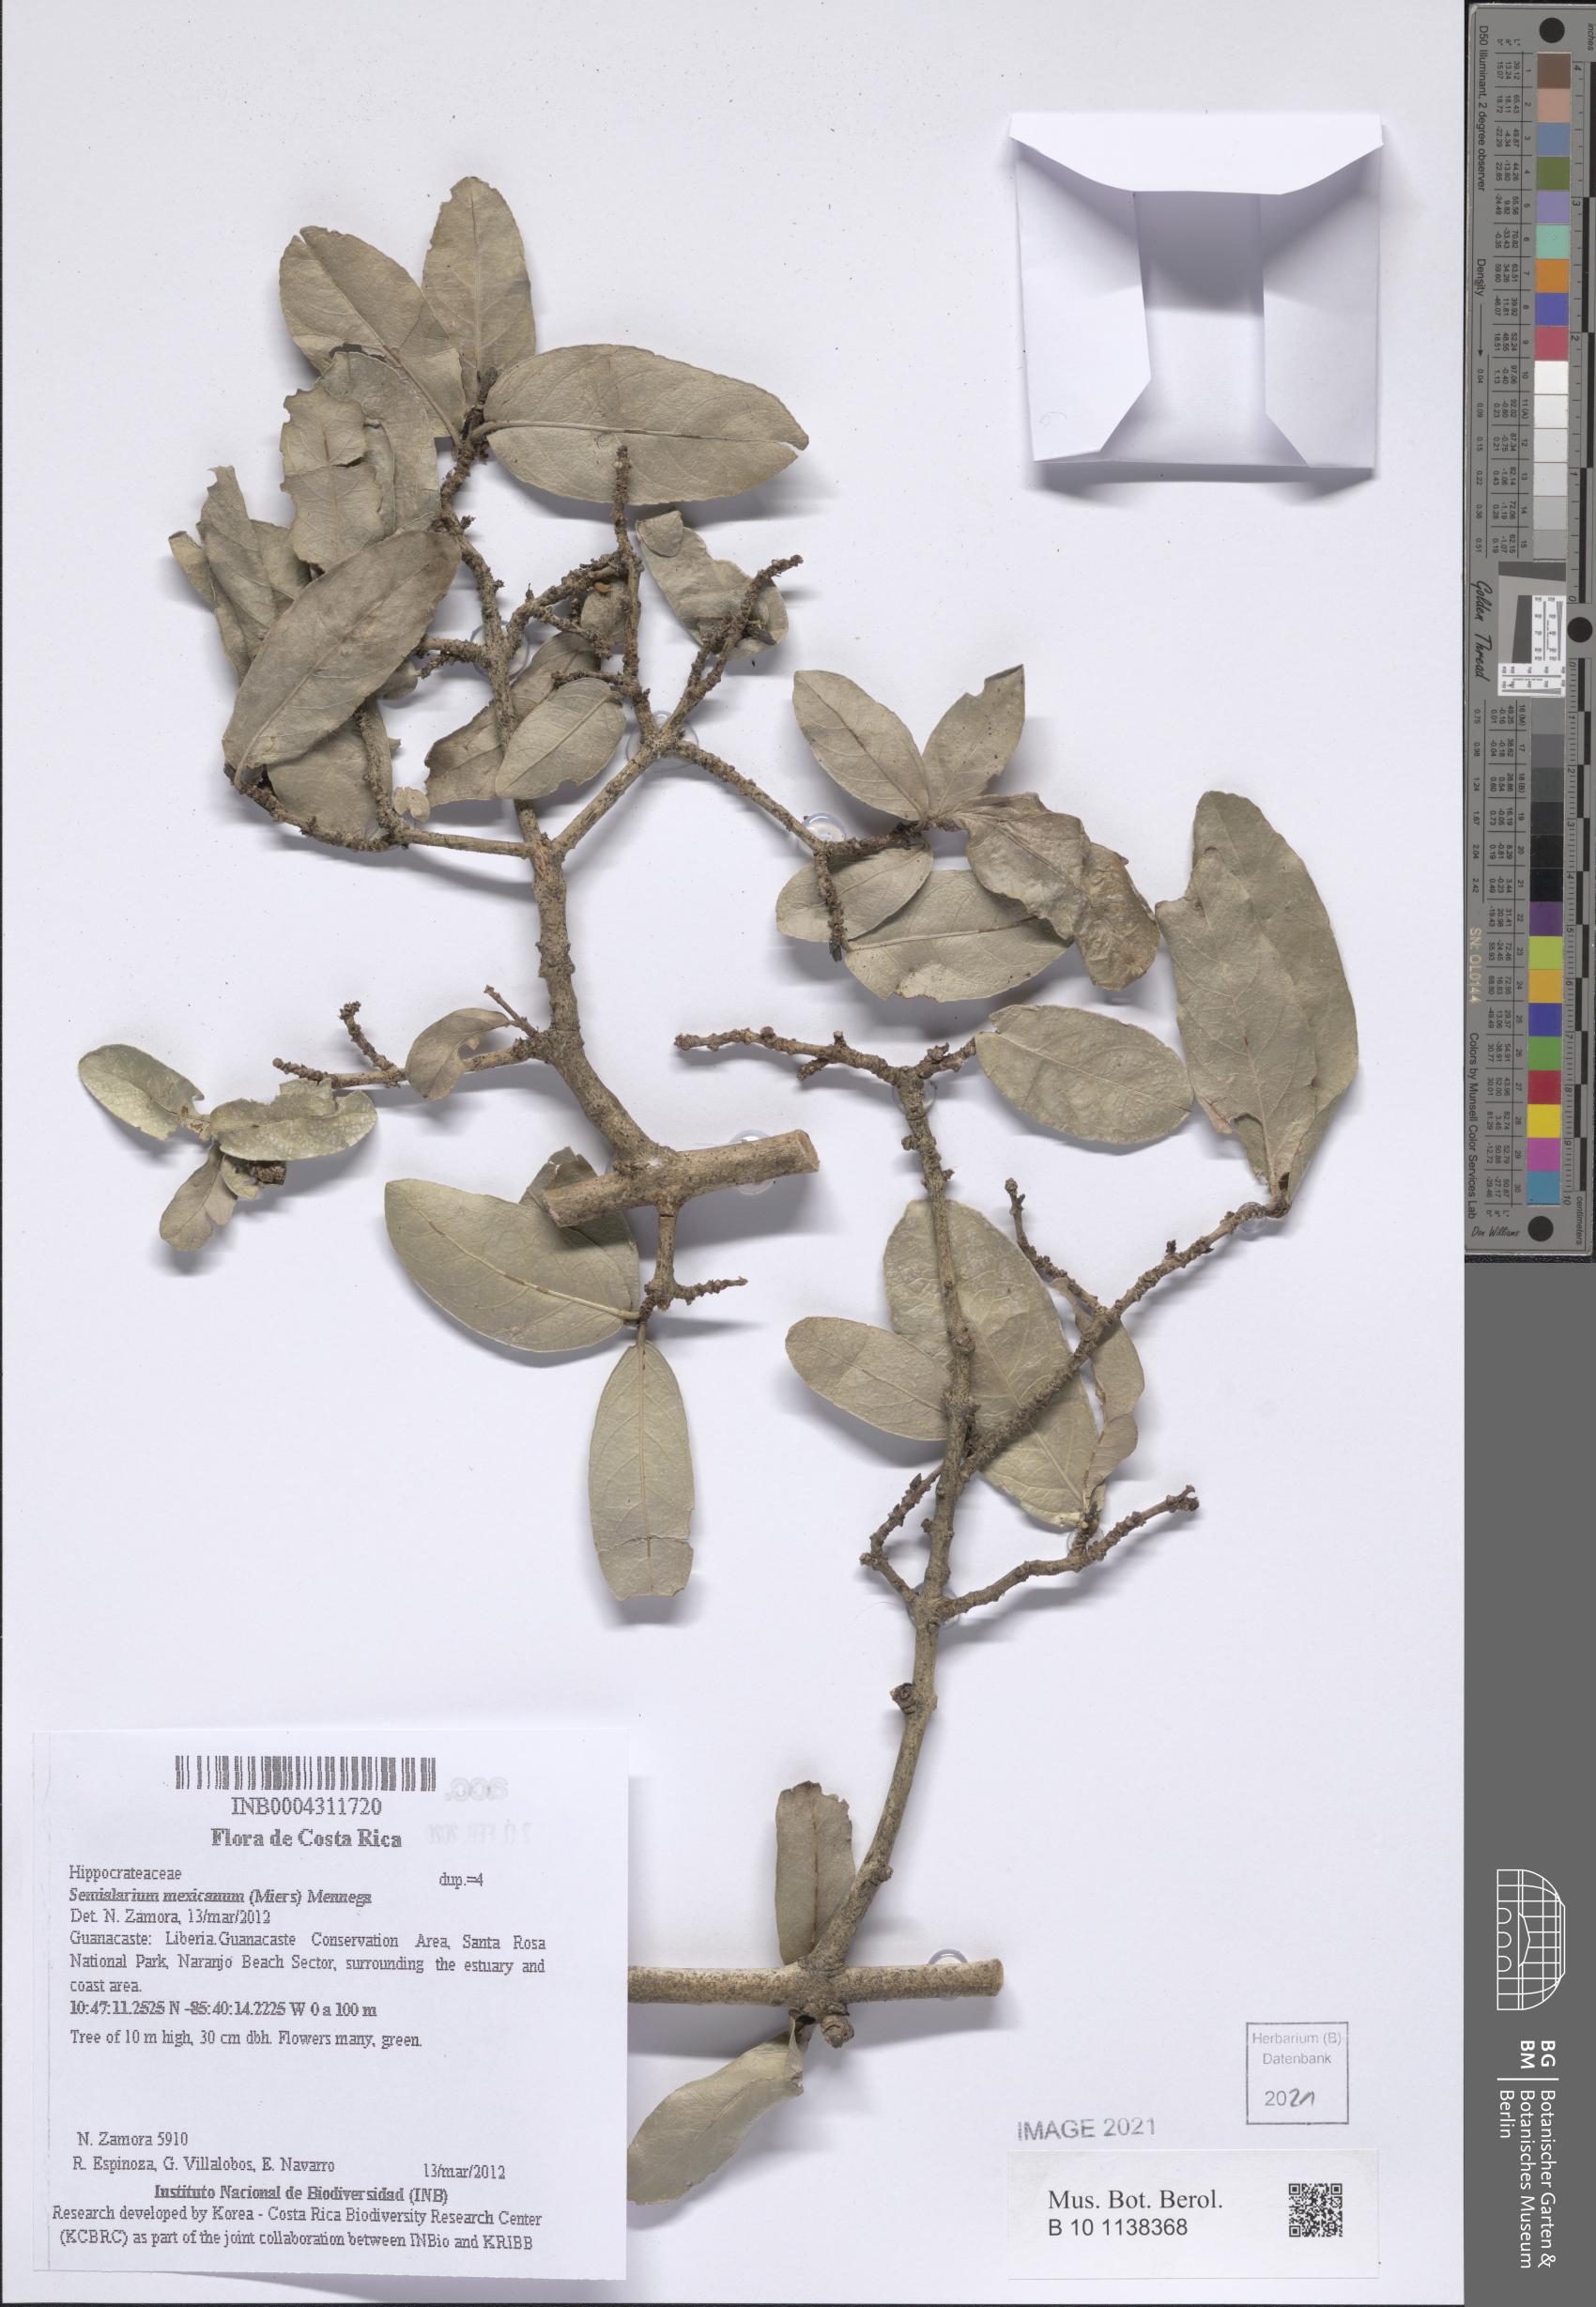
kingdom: Plantae
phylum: Tracheophyta
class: Magnoliopsida
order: Celastrales
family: Celastraceae
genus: Semialarium
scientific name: Semialarium mexicanum
